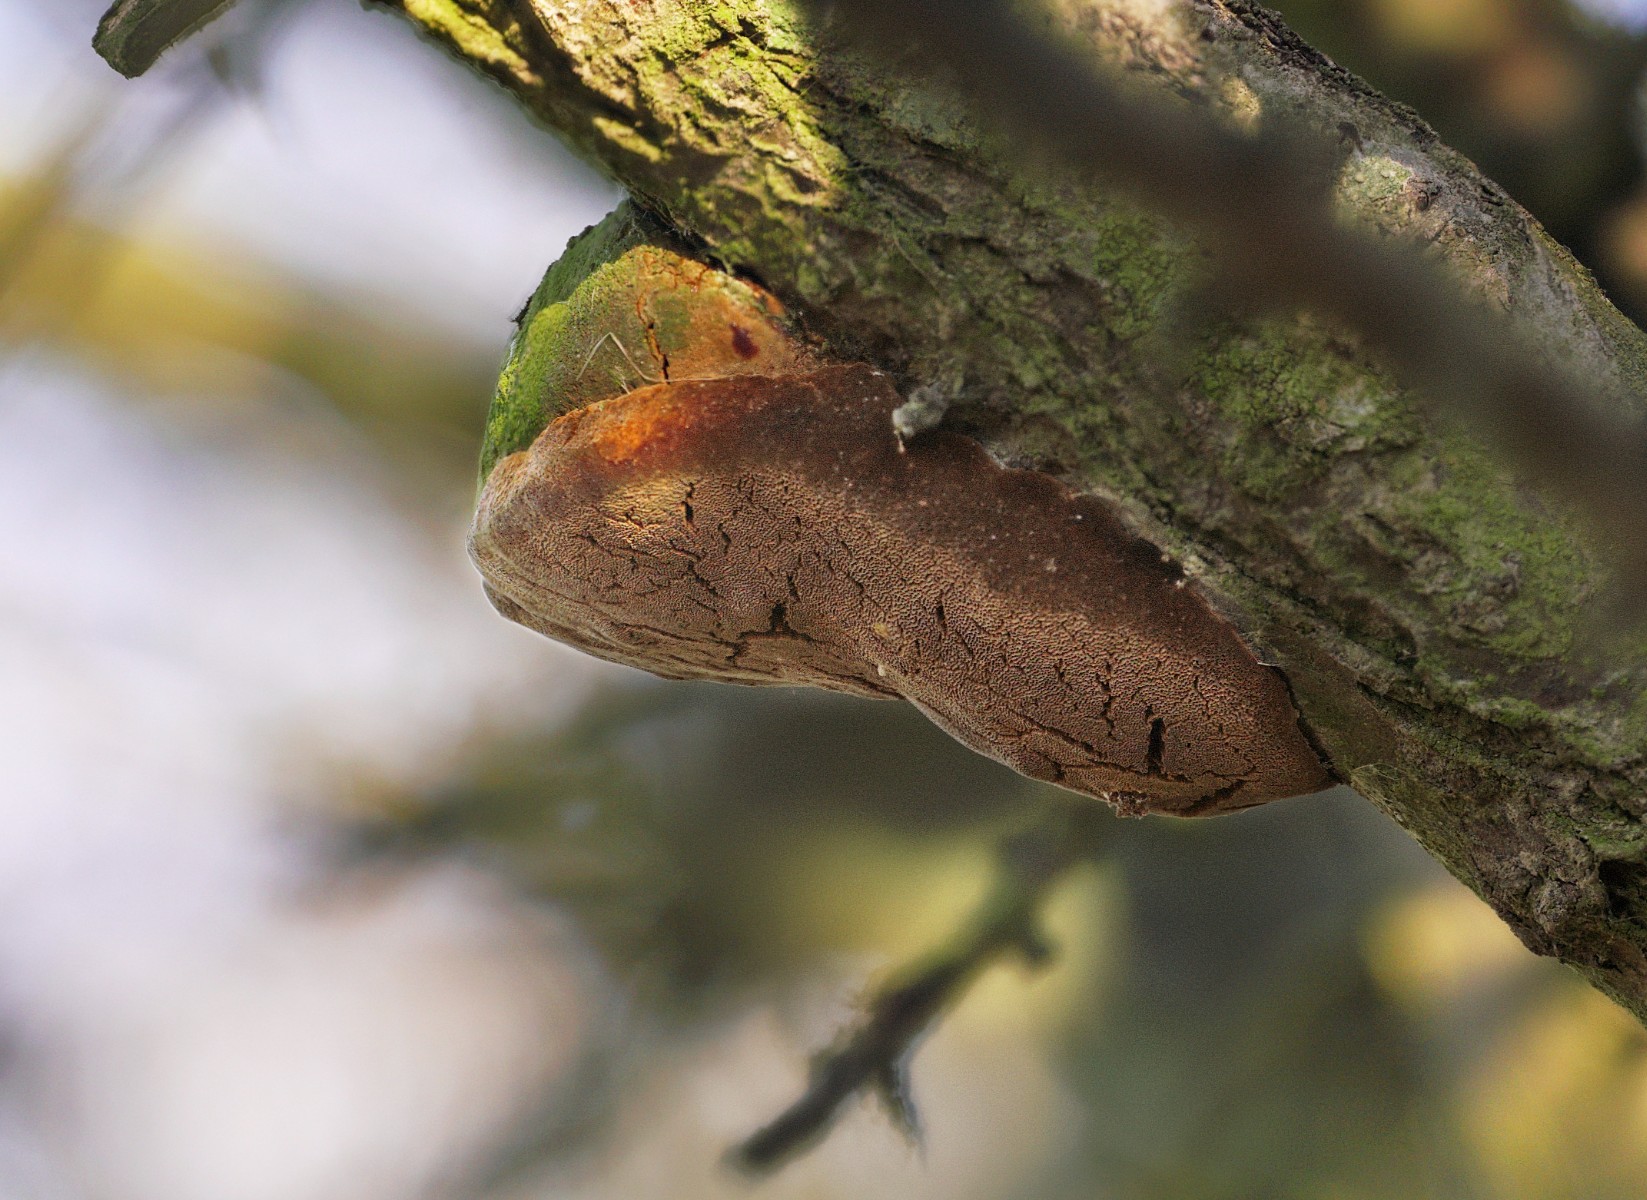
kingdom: Fungi
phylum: Basidiomycota
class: Agaricomycetes
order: Hymenochaetales
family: Hymenochaetaceae
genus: Fomitiporia
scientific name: Fomitiporia hippophaeicola
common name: havtorn-ildporesvamp
